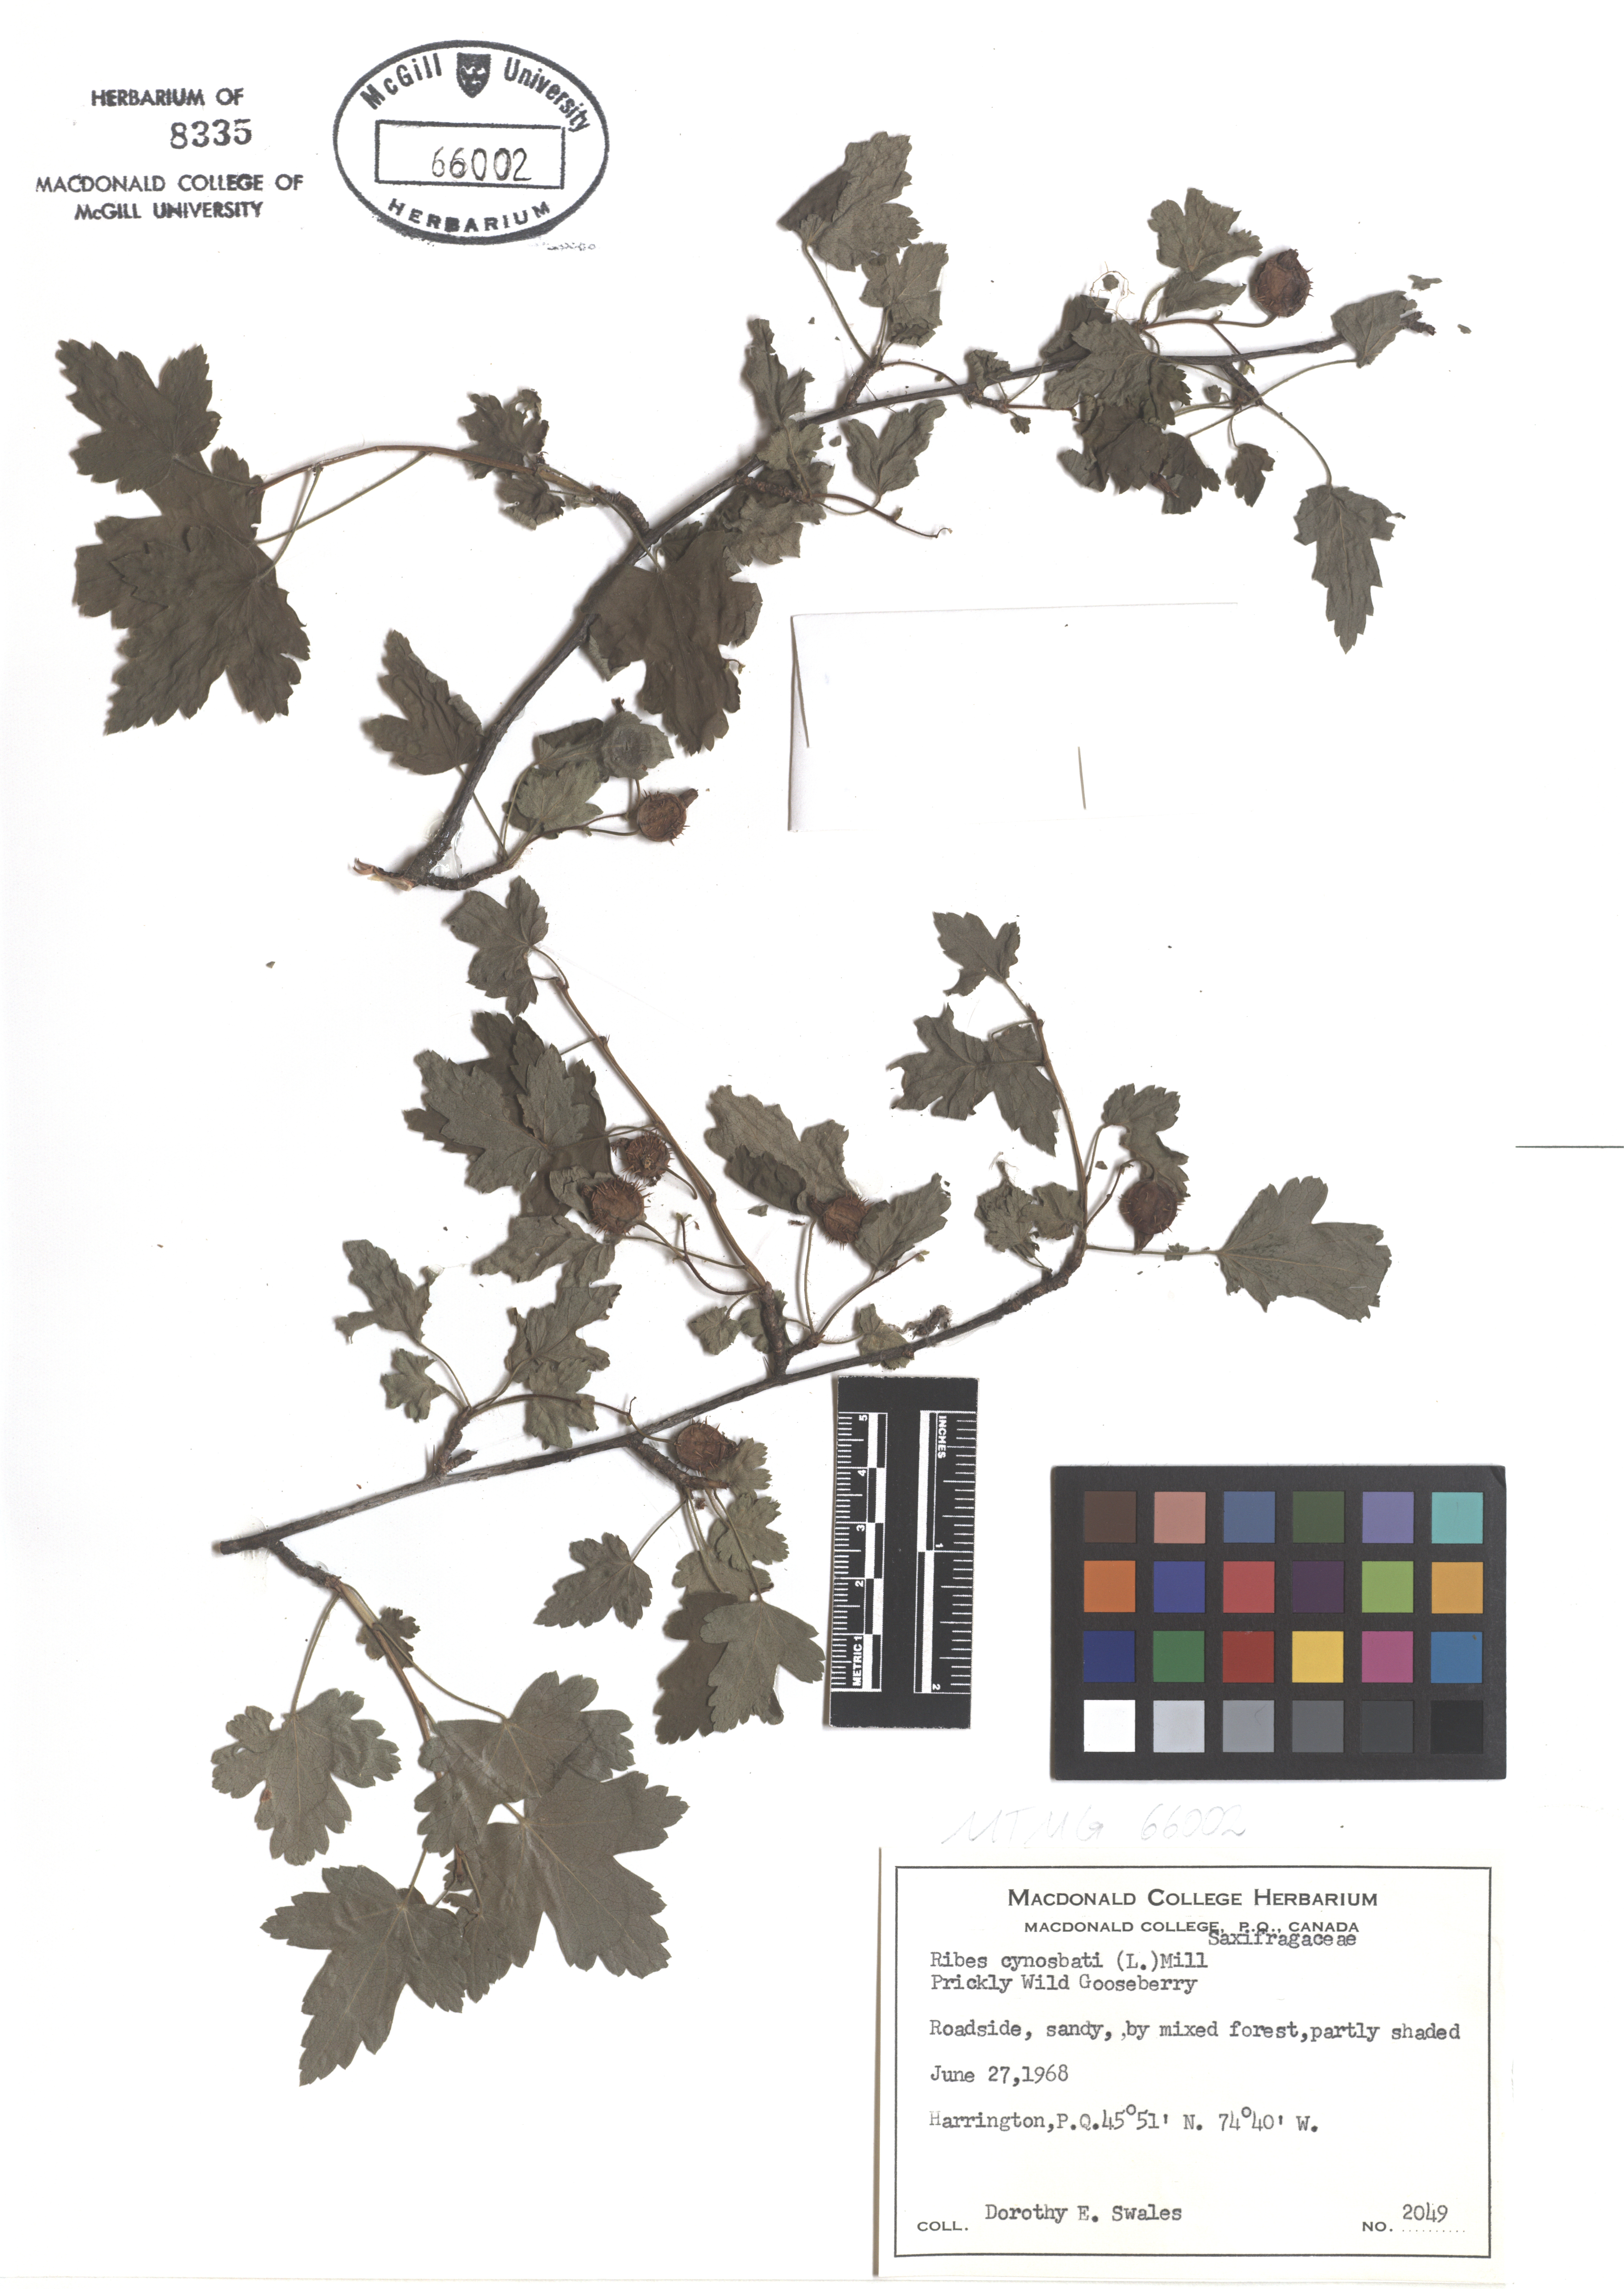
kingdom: Plantae
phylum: Tracheophyta
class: Magnoliopsida
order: Saxifragales
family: Saxifragaceae
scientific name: Saxifragaceae
